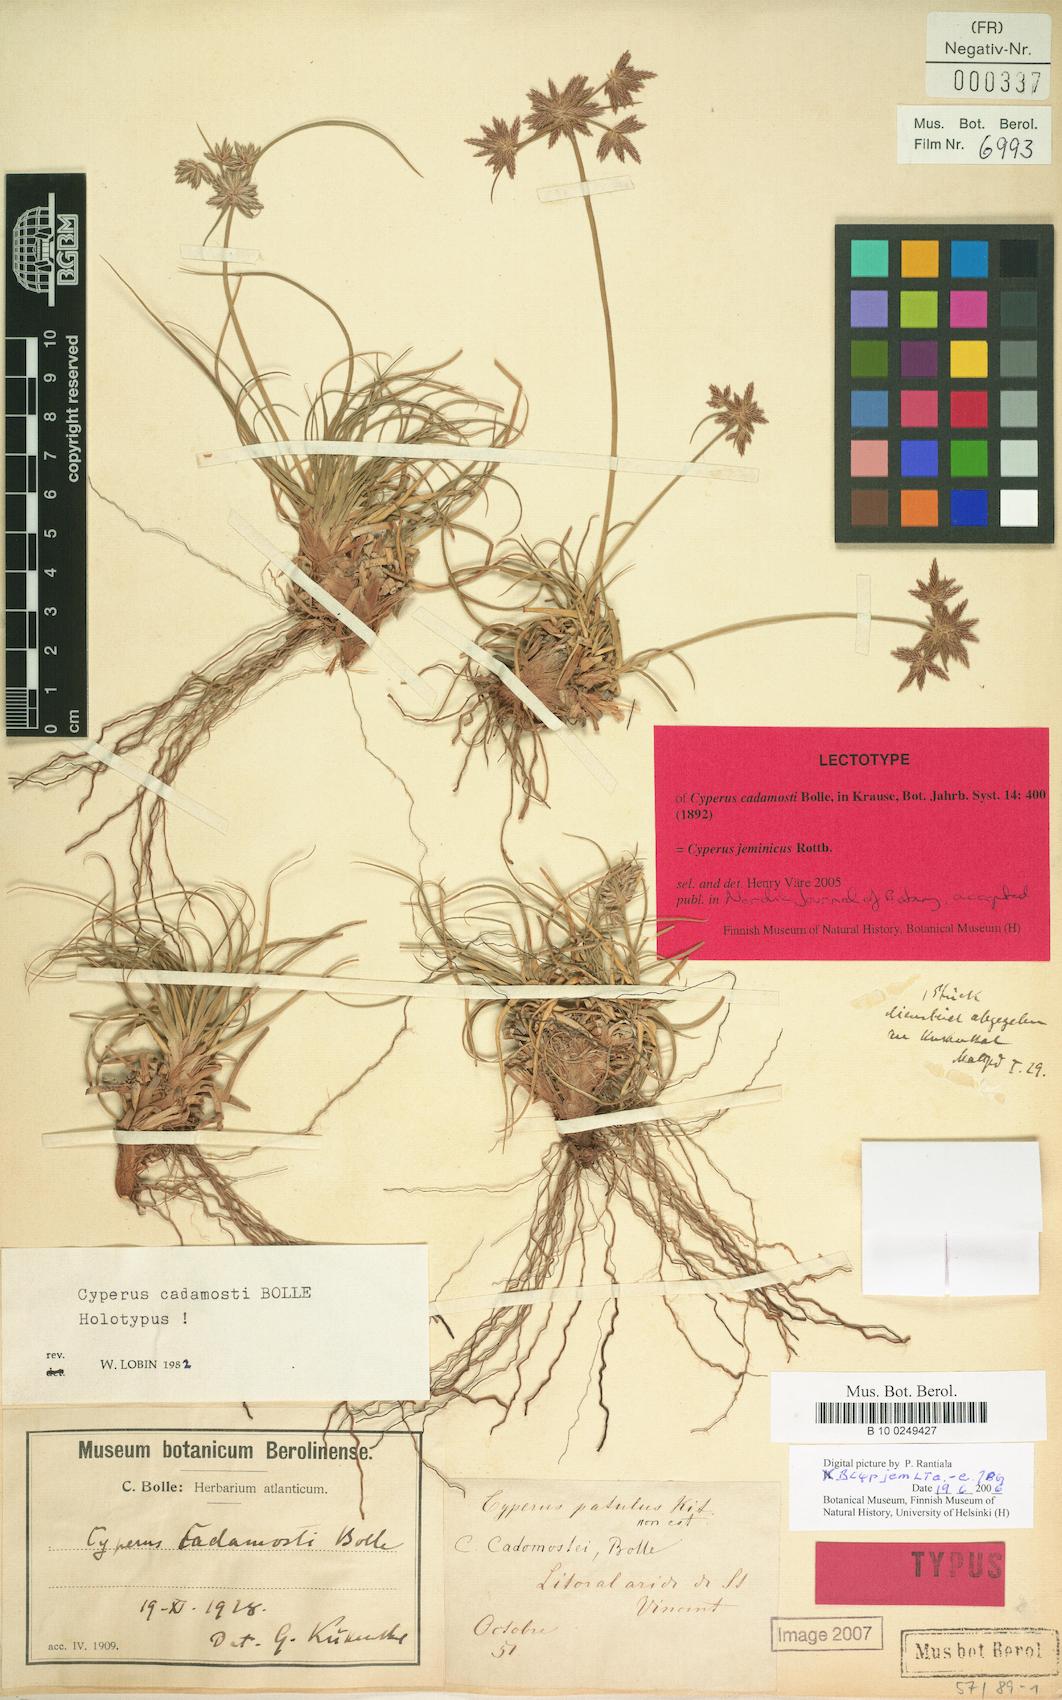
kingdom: Plantae
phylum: Tracheophyta
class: Liliopsida
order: Poales
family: Cyperaceae
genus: Cyperus
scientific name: Cyperus jeminicus
